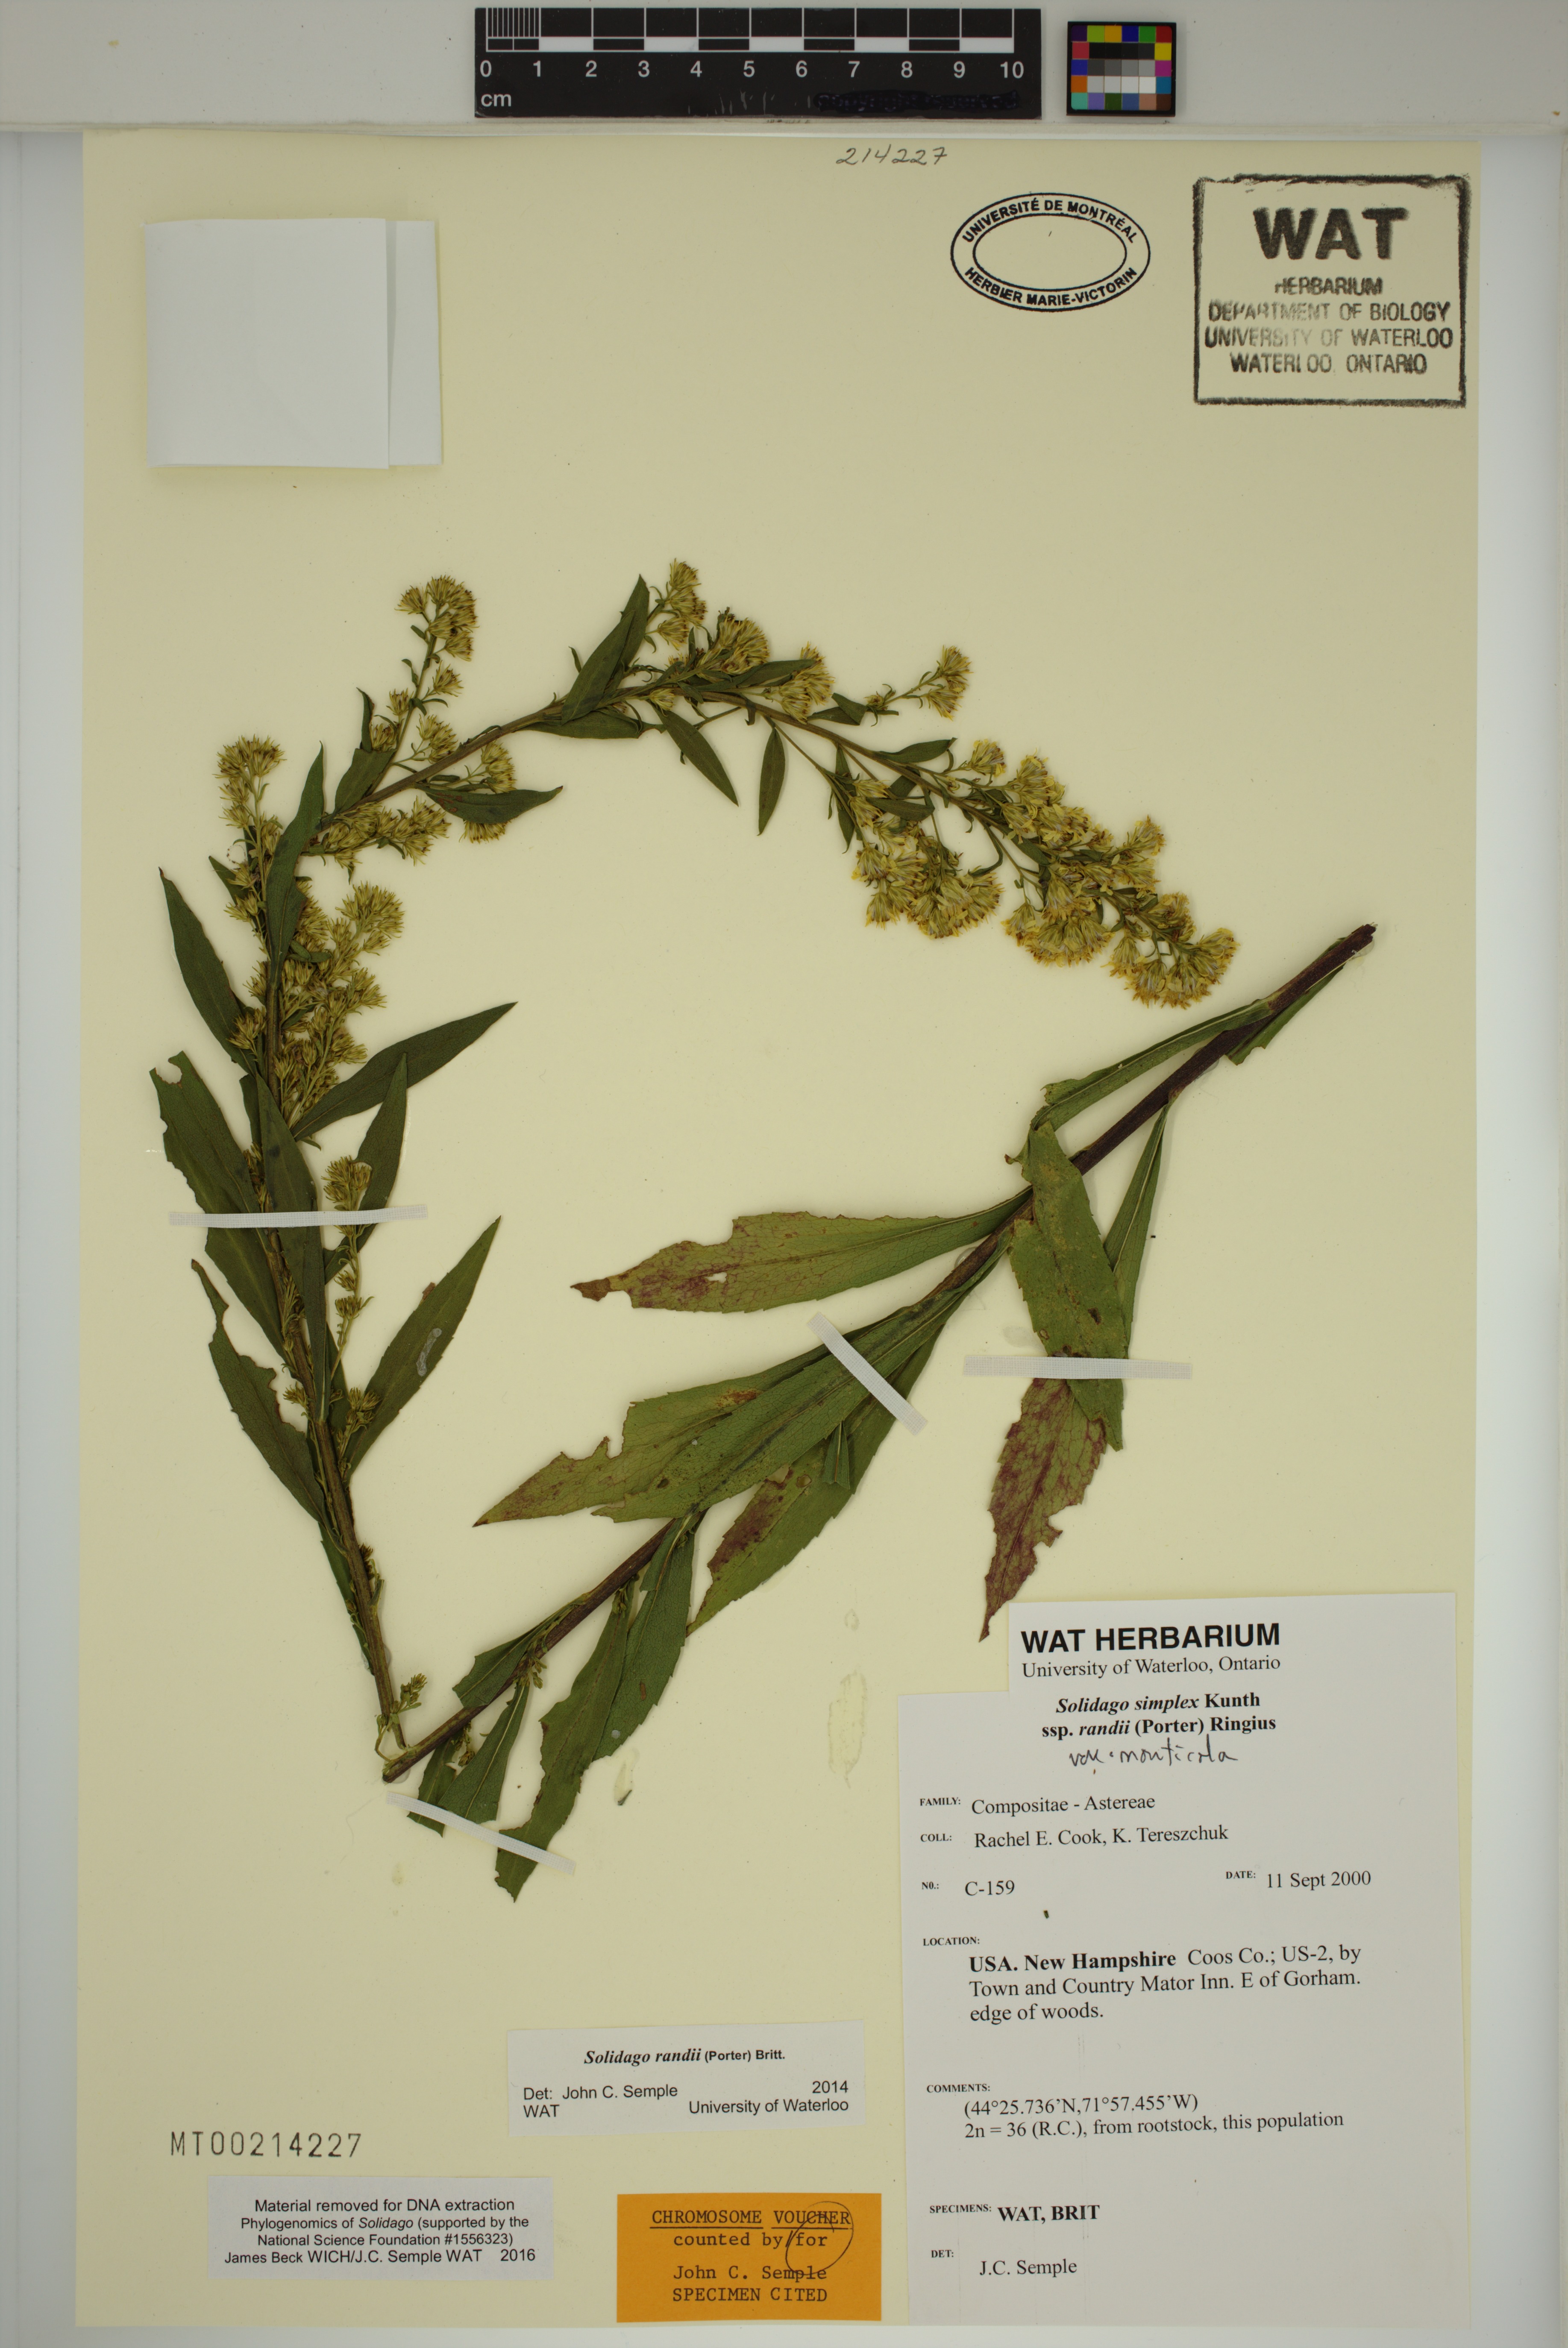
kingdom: Plantae
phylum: Tracheophyta
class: Magnoliopsida
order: Asterales
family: Asteraceae
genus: Solidago
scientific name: Solidago randii
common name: Rand's goldenrod
